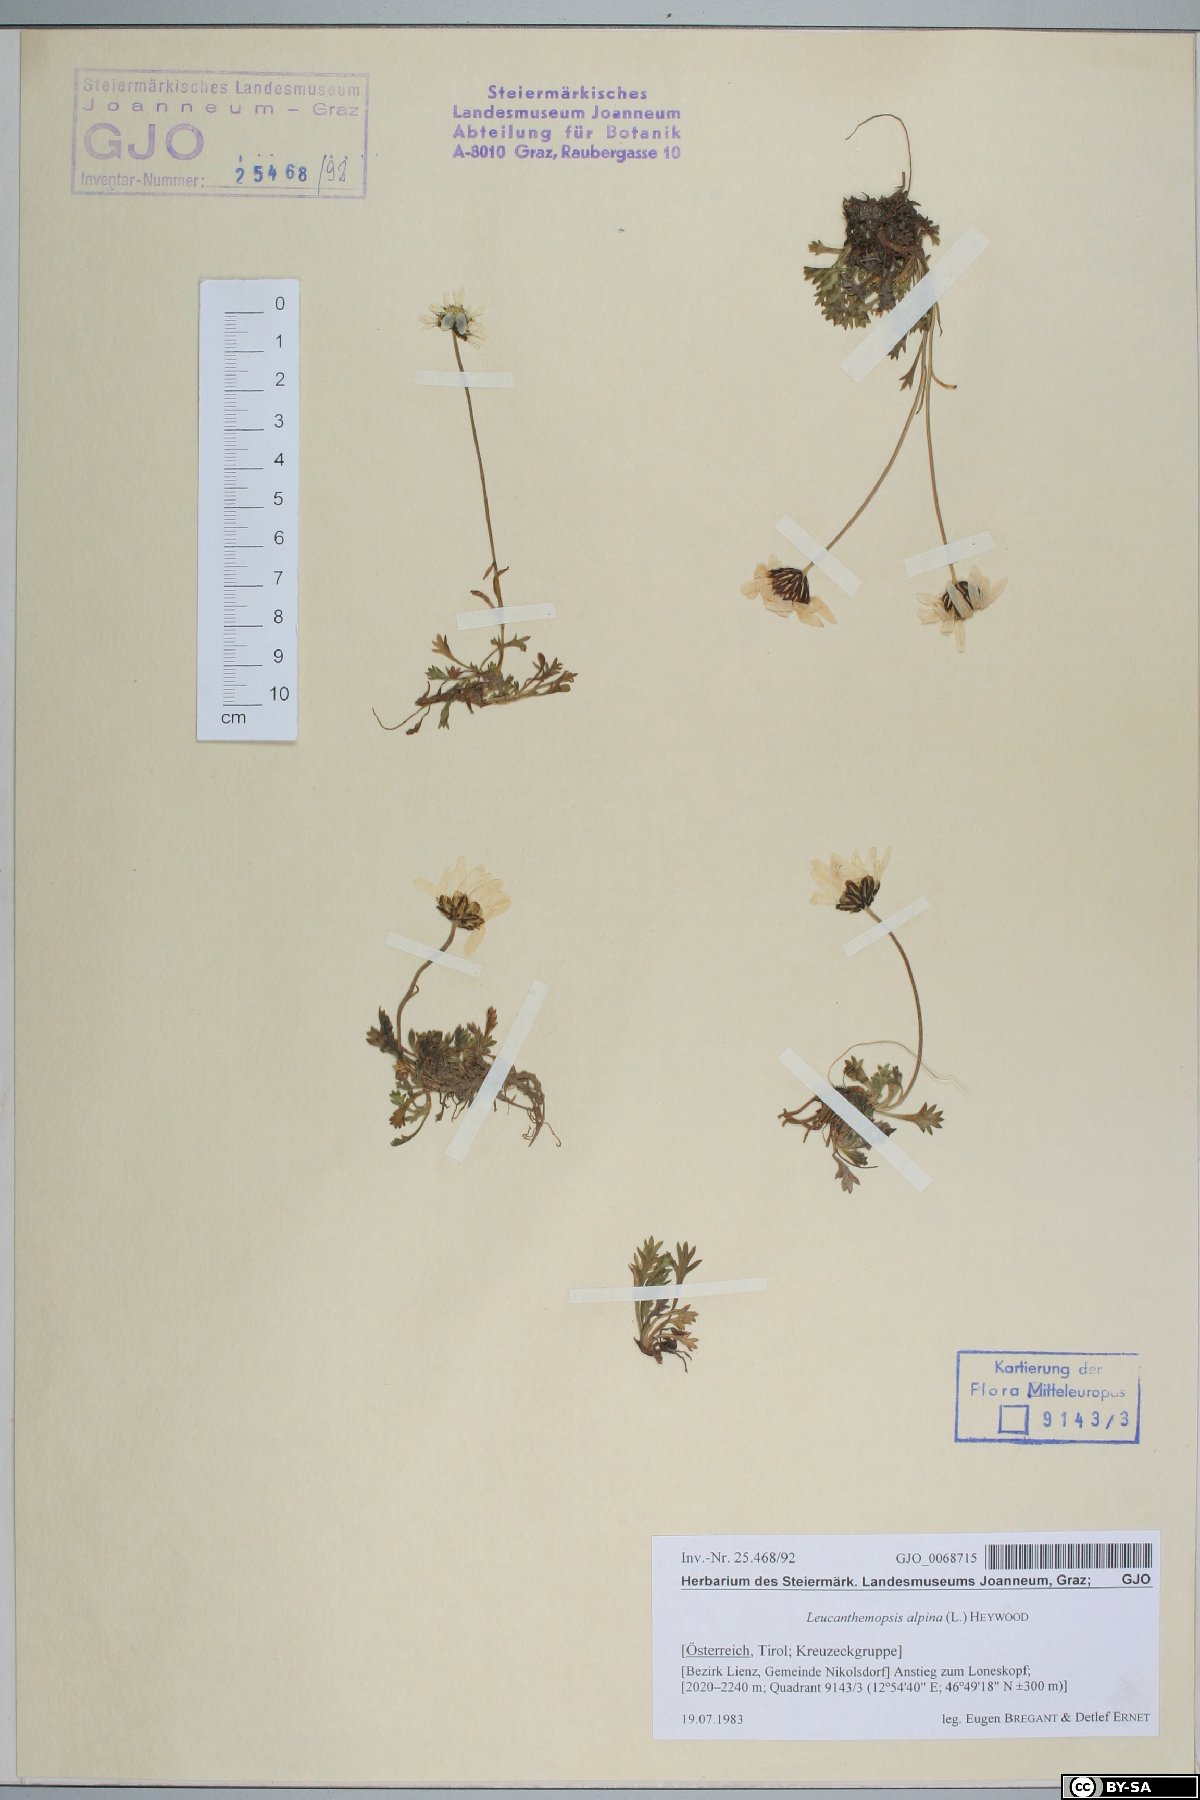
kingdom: Plantae
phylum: Tracheophyta
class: Magnoliopsida
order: Asterales
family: Asteraceae
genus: Leucanthemopsis
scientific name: Leucanthemopsis alpina
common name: Alpine moon daisy
